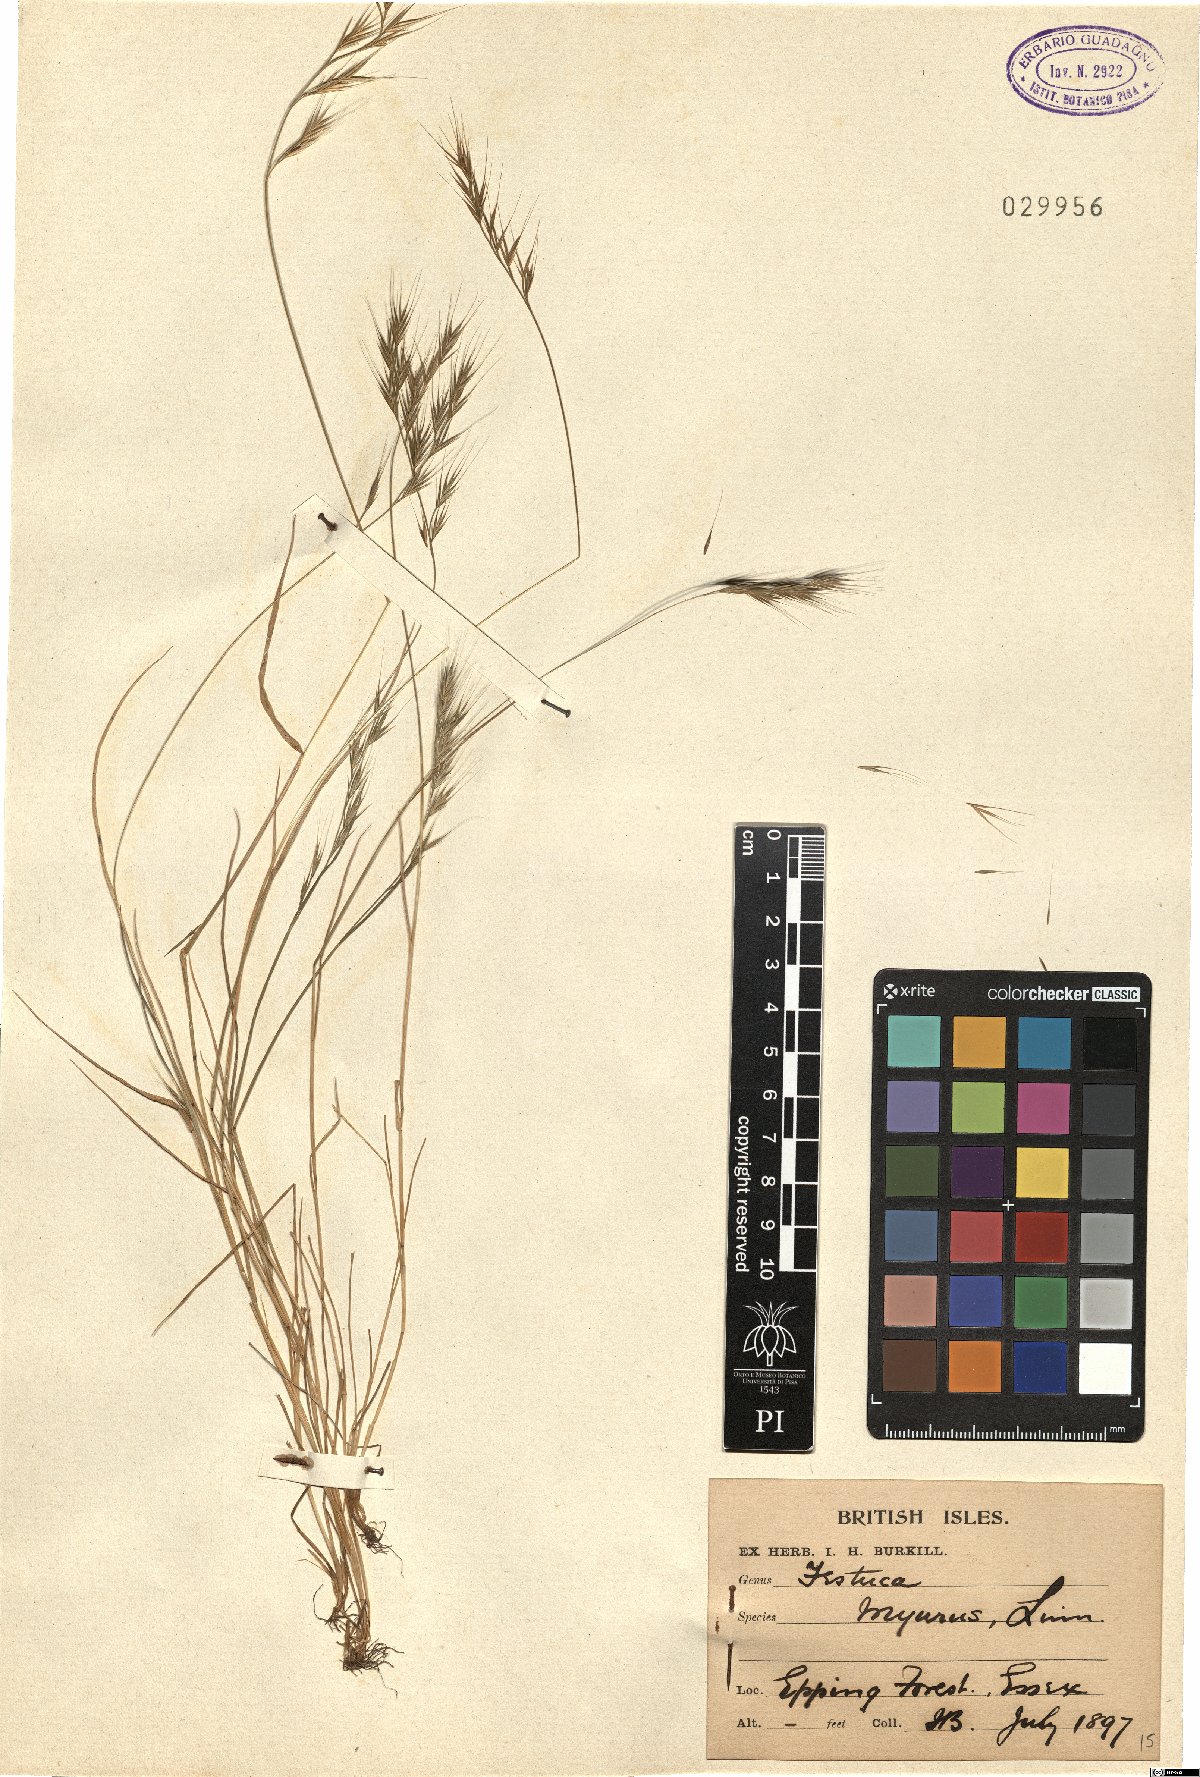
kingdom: Plantae
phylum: Tracheophyta
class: Liliopsida
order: Poales
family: Poaceae
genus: Festuca
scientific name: Festuca myuros
